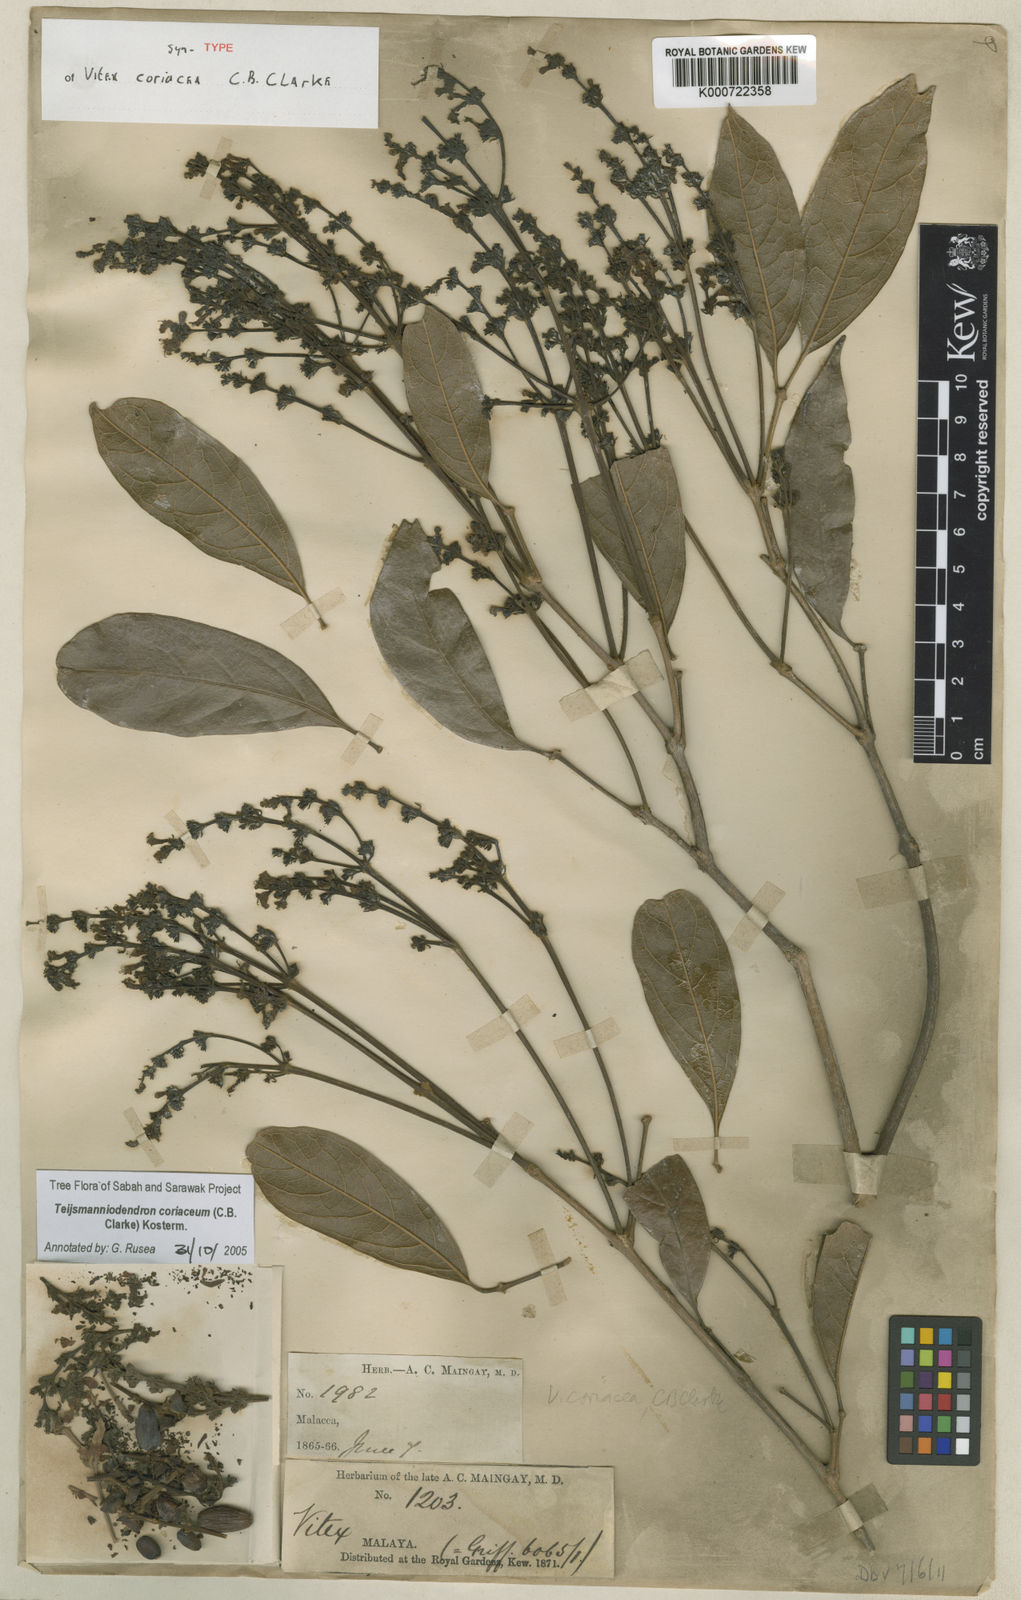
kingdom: Plantae
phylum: Tracheophyta
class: Magnoliopsida
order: Lamiales
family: Lamiaceae
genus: Teijsmanniodendron
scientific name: Teijsmanniodendron coriaceum
